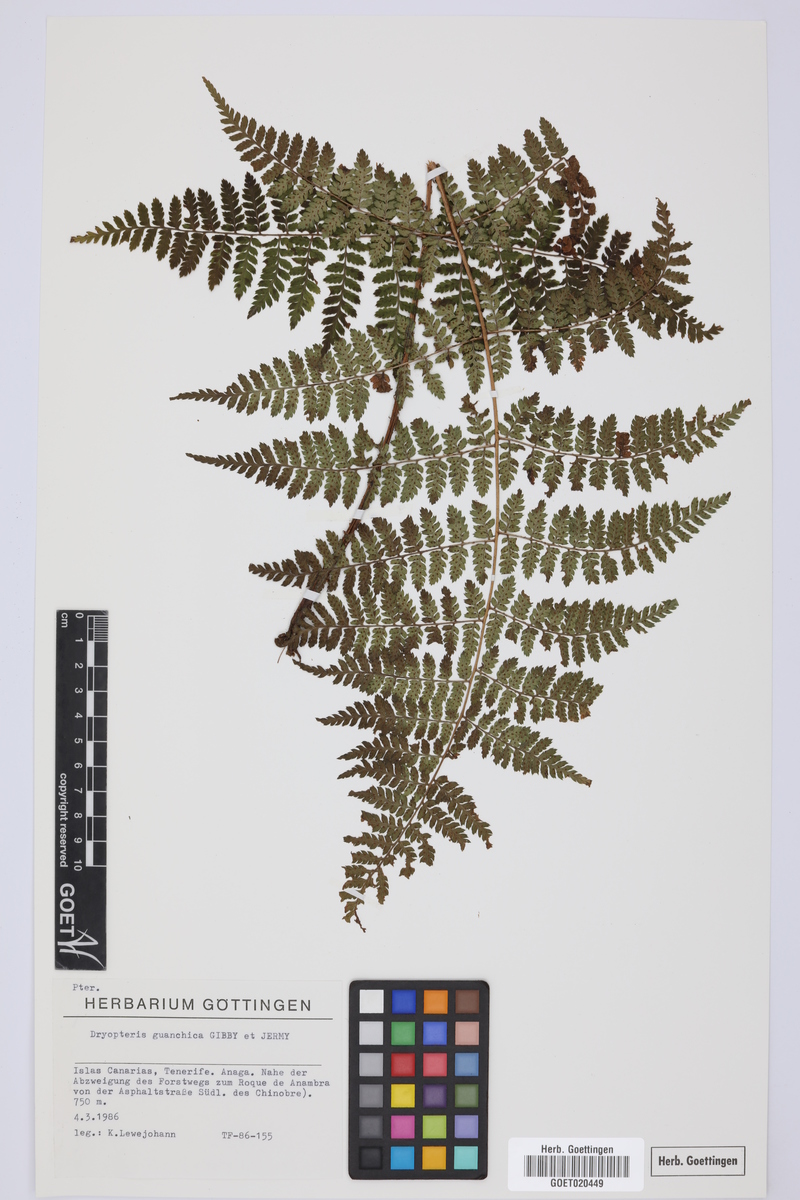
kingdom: Plantae
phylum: Tracheophyta
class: Polypodiopsida
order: Polypodiales
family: Dryopteridaceae
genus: Dryopteris
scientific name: Dryopteris guanchica
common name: Guanche woodfern
